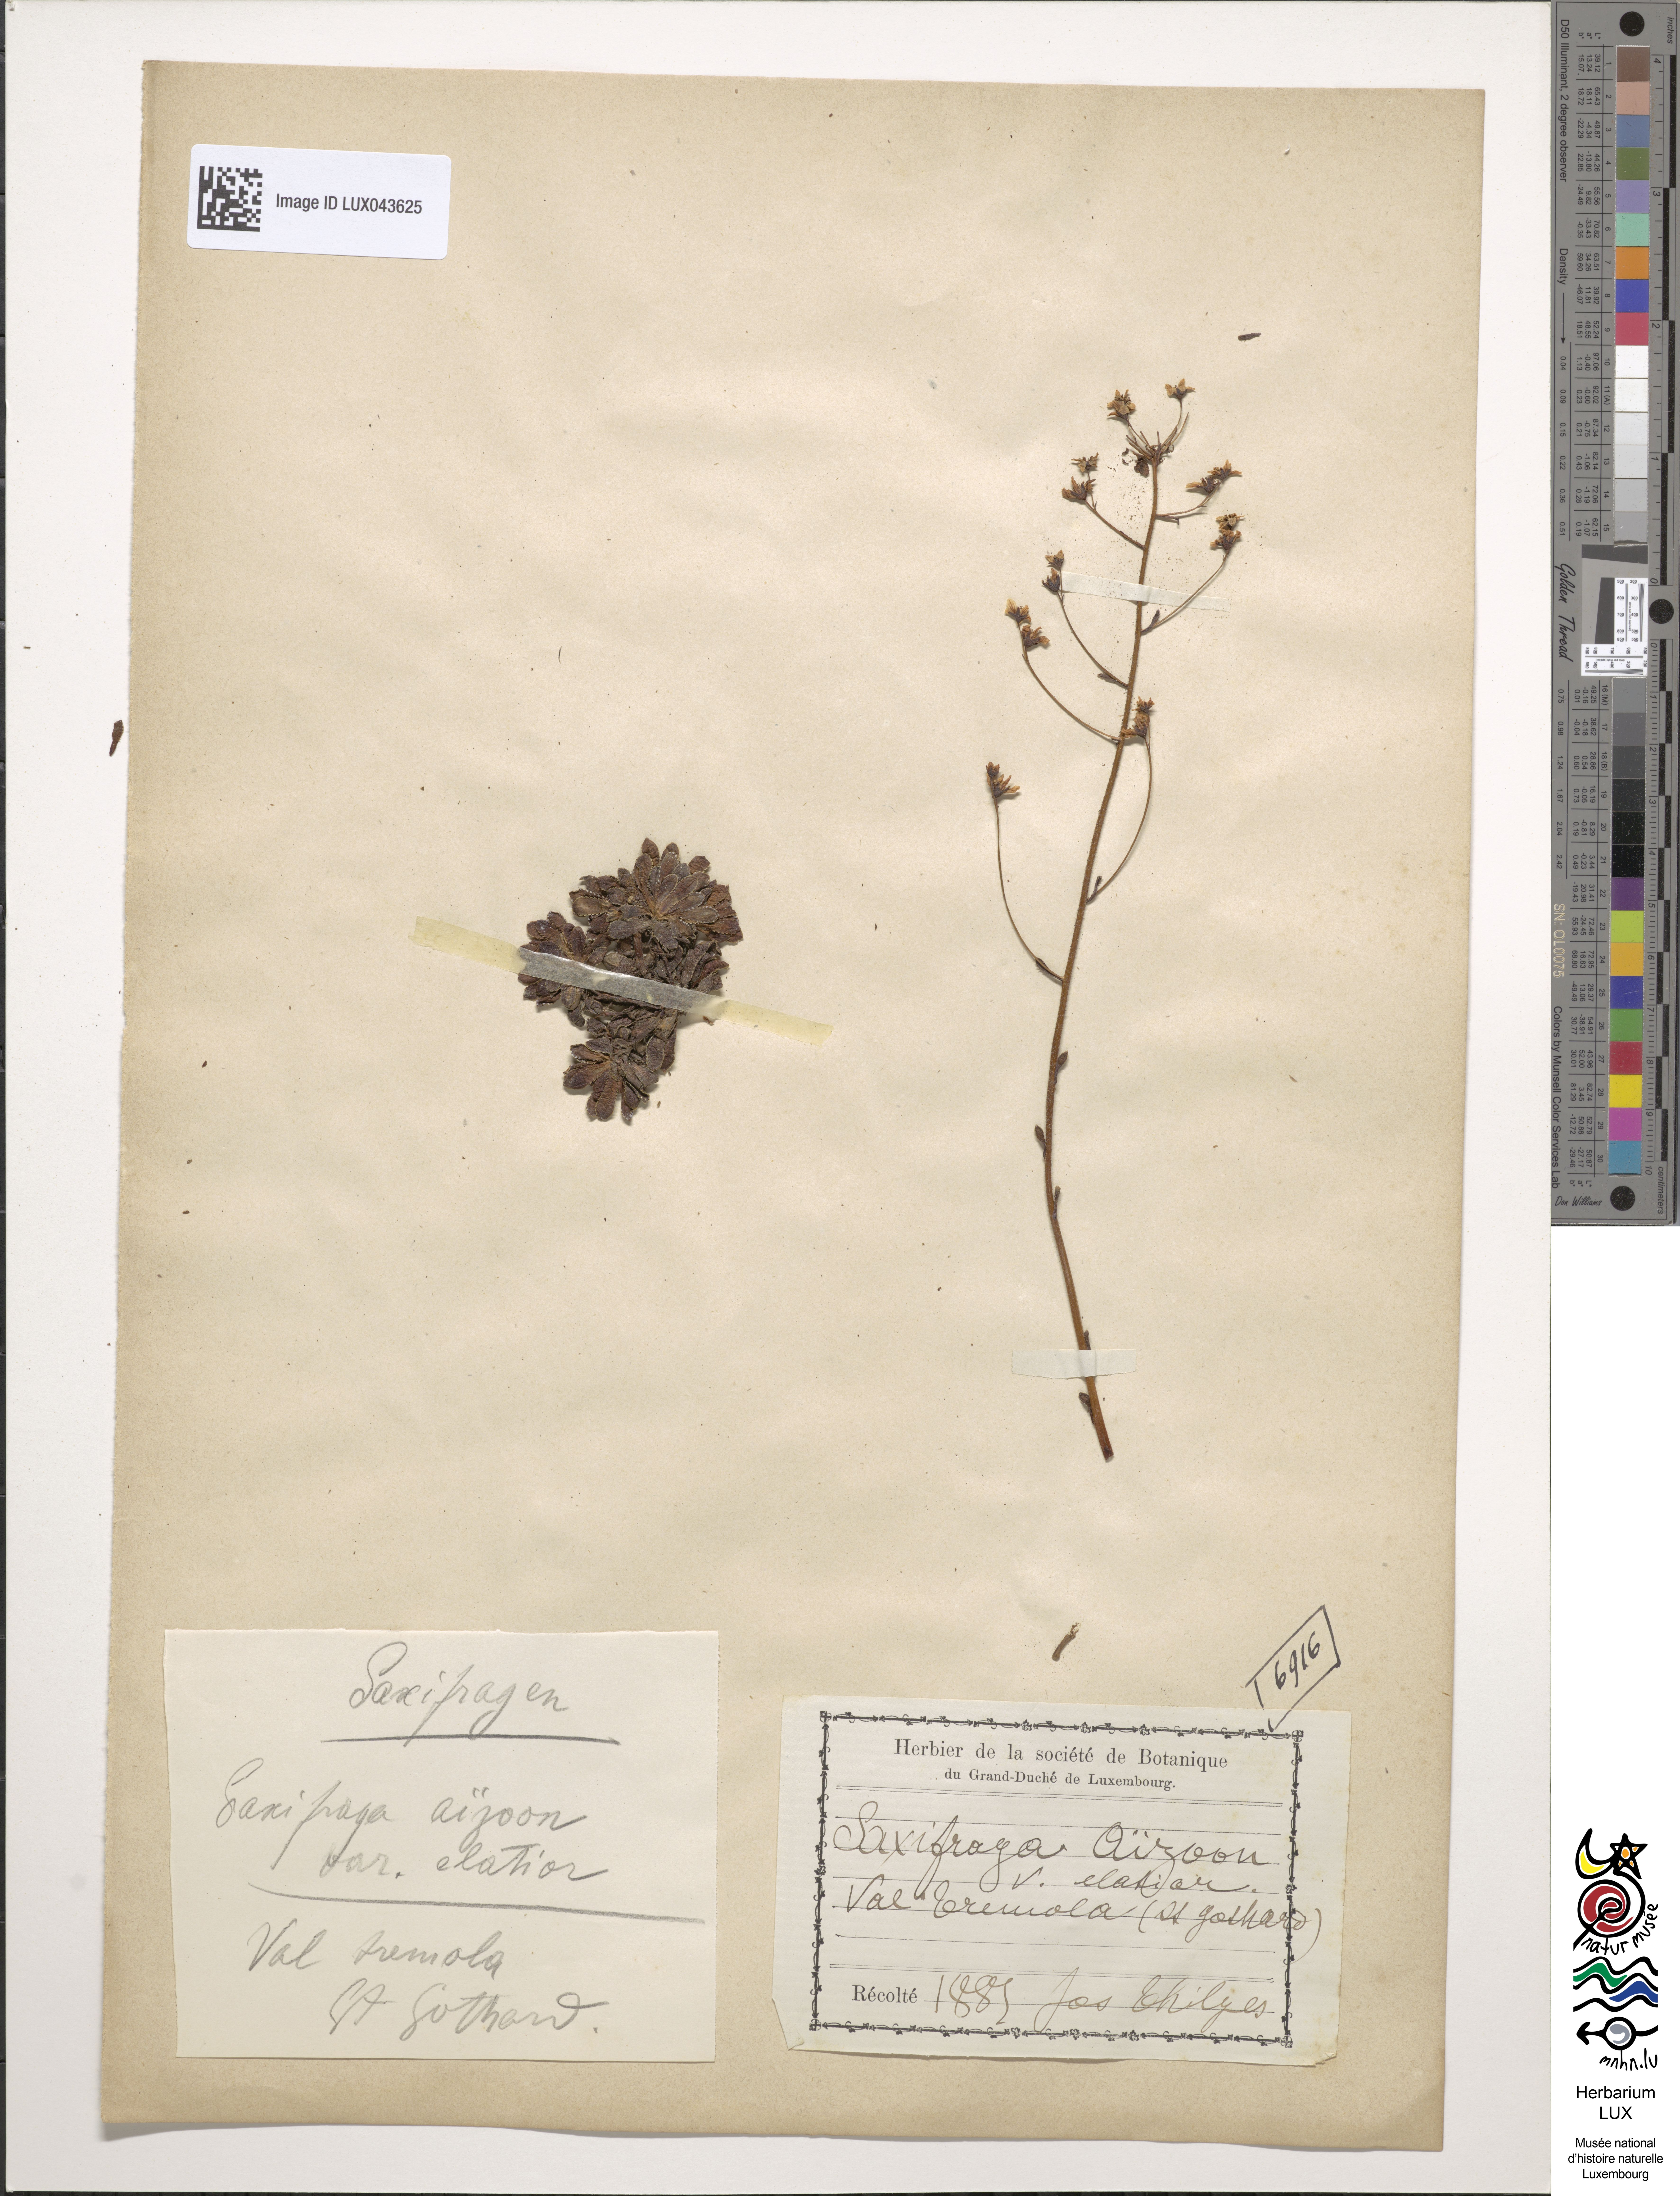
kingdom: Plantae
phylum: Tracheophyta
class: Magnoliopsida
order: Saxifragales
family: Saxifragaceae
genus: Saxifraga
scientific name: Saxifraga aizoon
